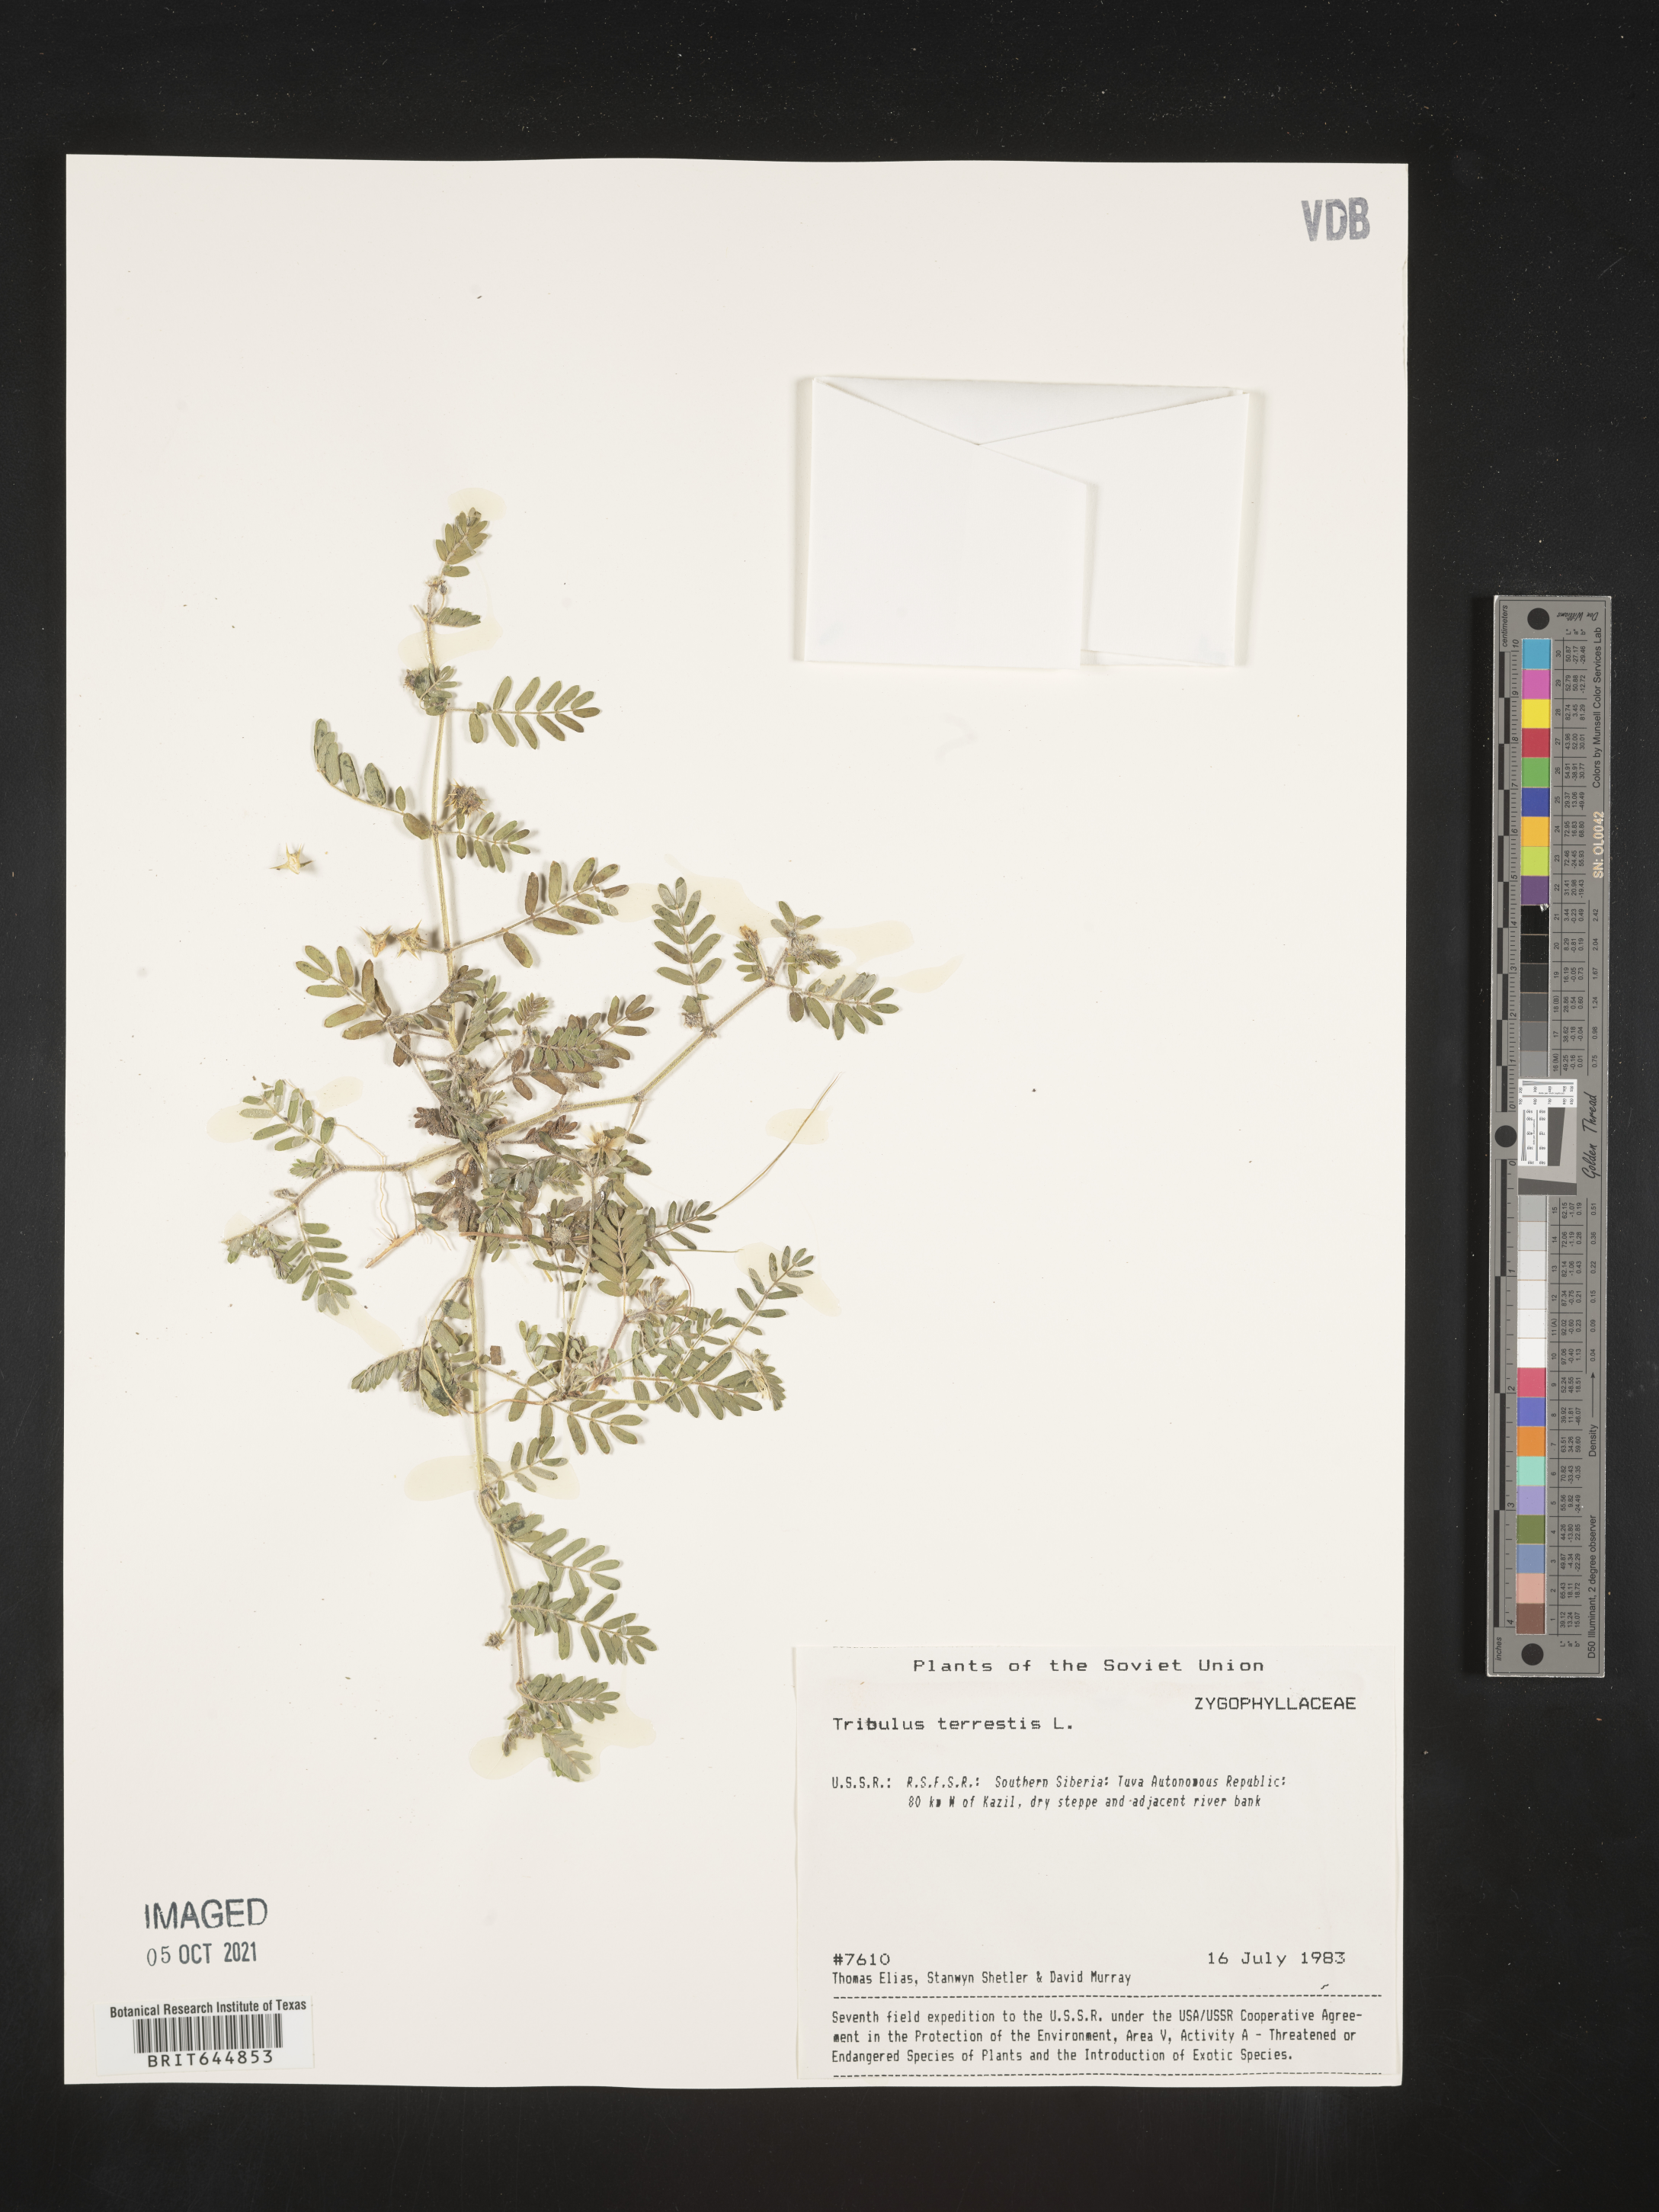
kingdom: Plantae
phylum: Tracheophyta
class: Magnoliopsida
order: Zygophyllales
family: Zygophyllaceae
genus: Tribulus
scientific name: Tribulus
